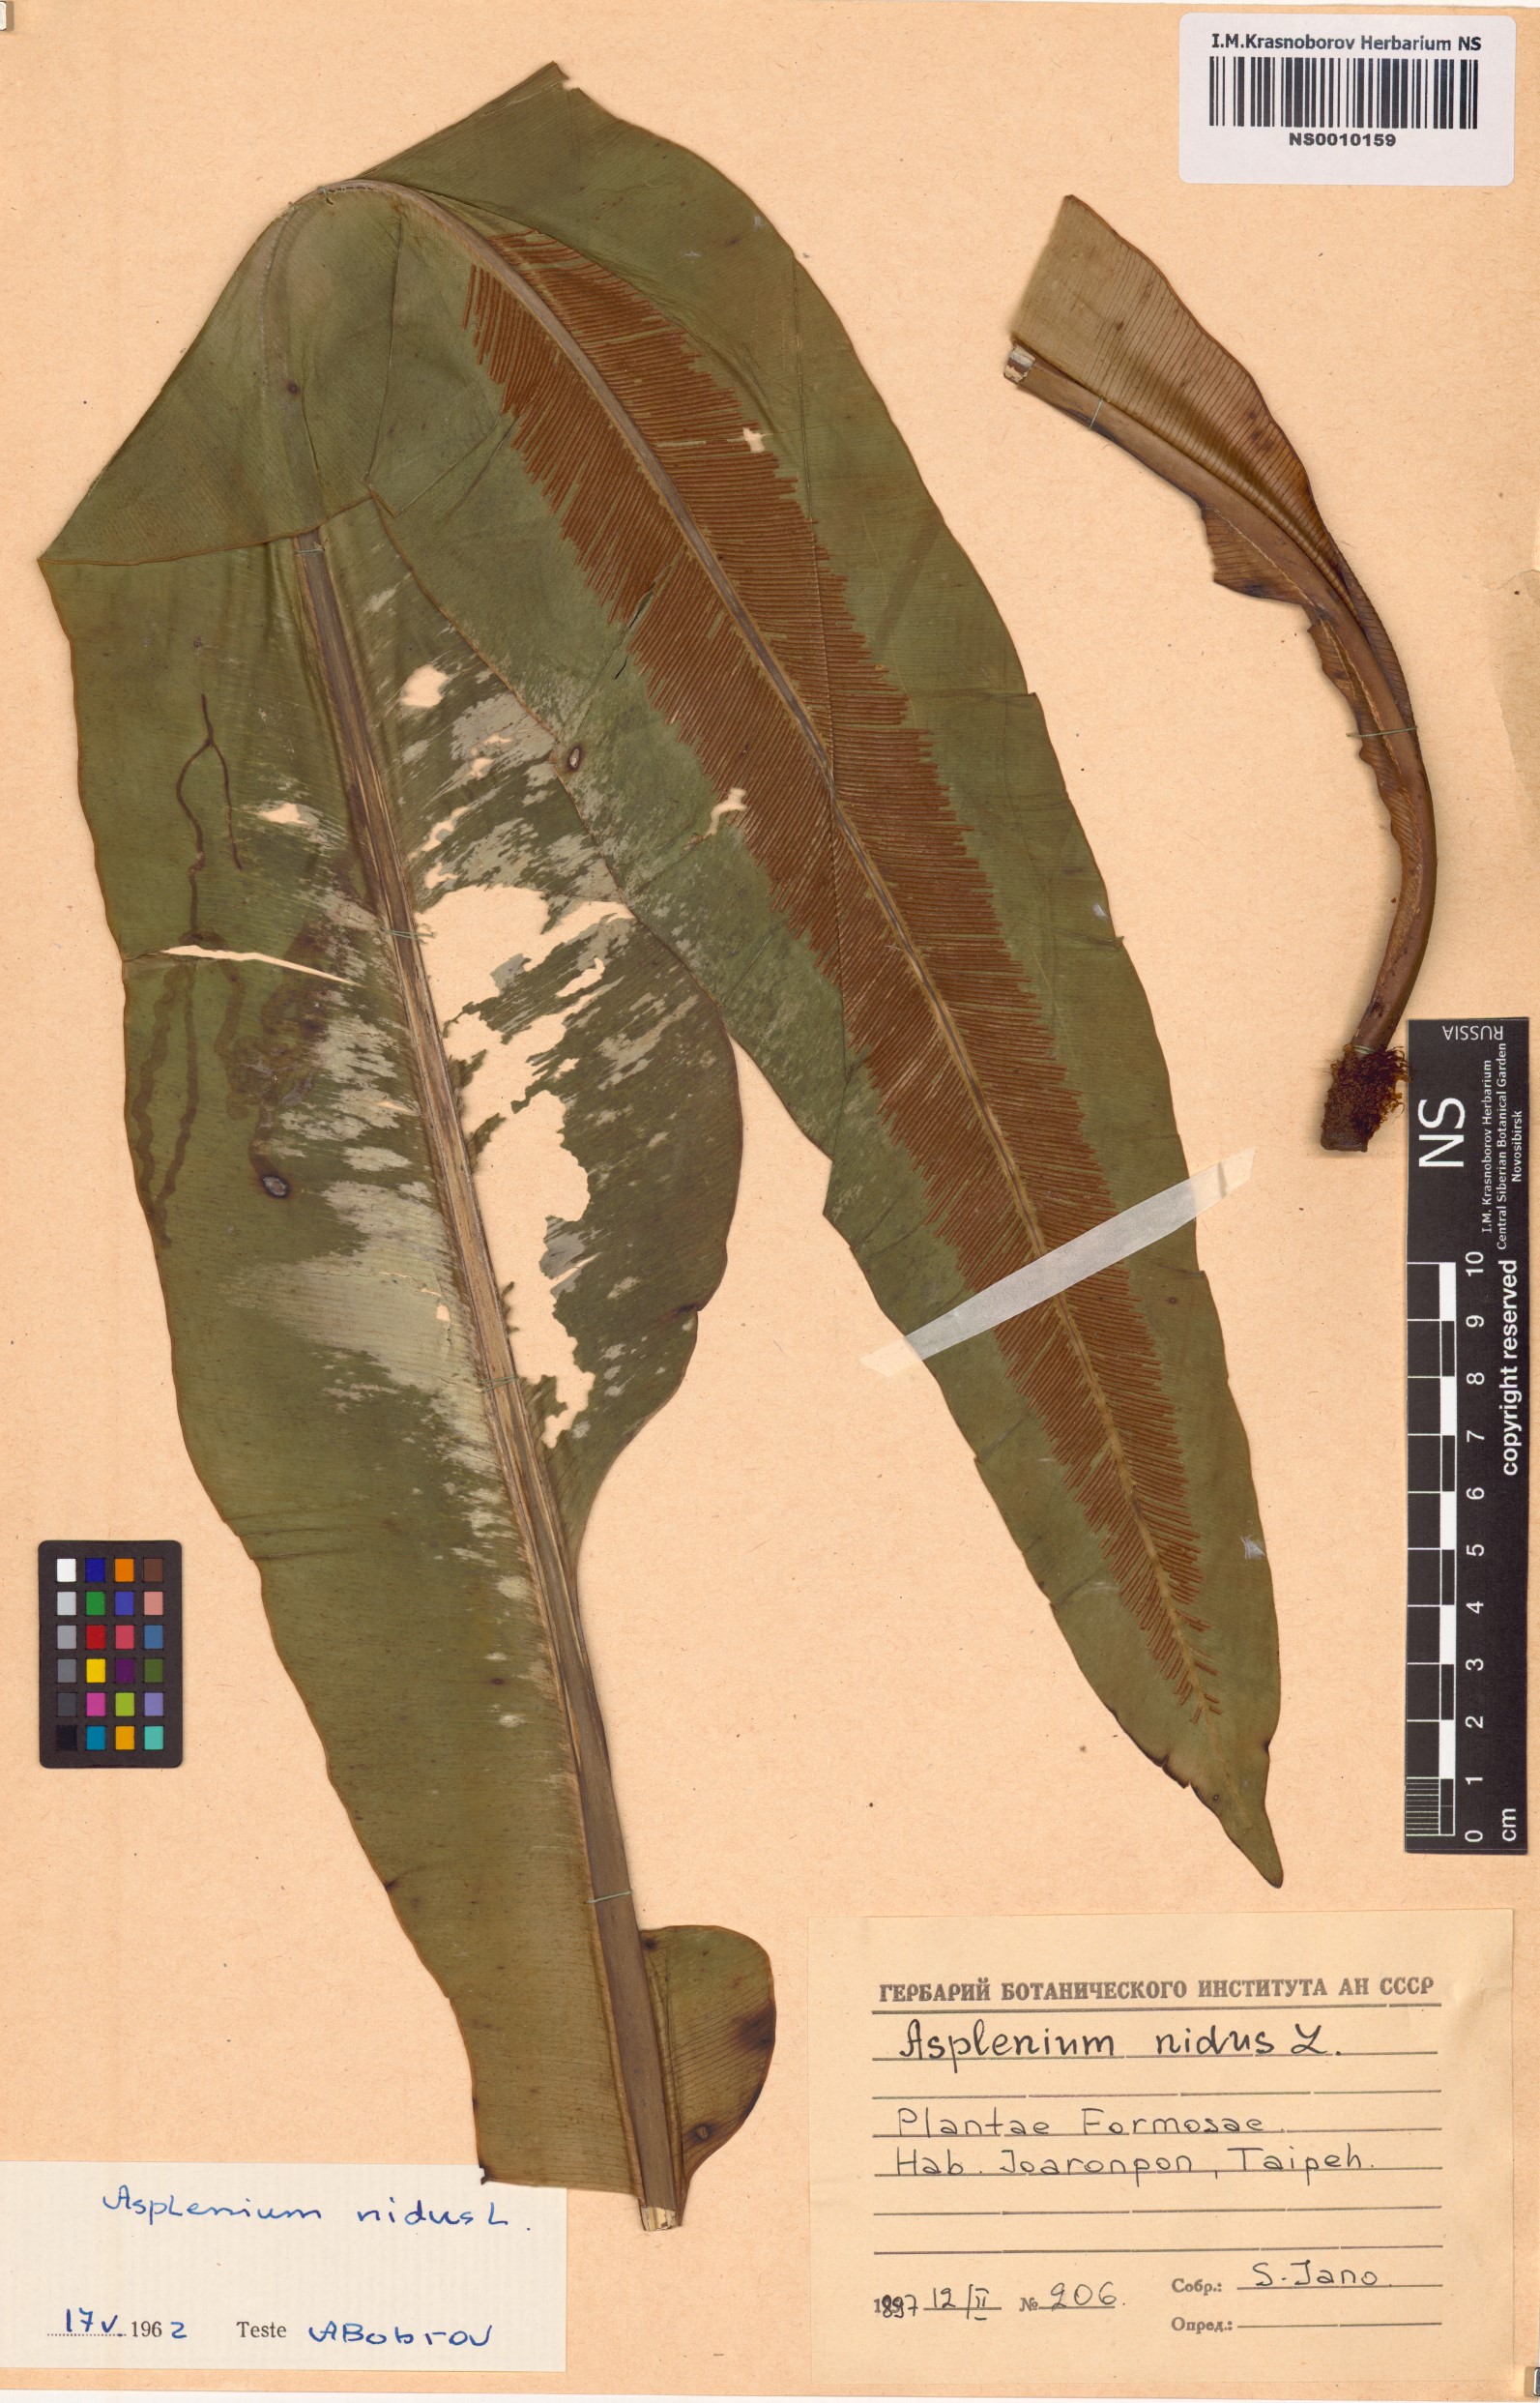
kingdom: Plantae
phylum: Tracheophyta
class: Polypodiopsida
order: Polypodiales
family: Aspleniaceae
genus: Asplenium
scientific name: Asplenium nidus
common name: Bird's-nest fern
